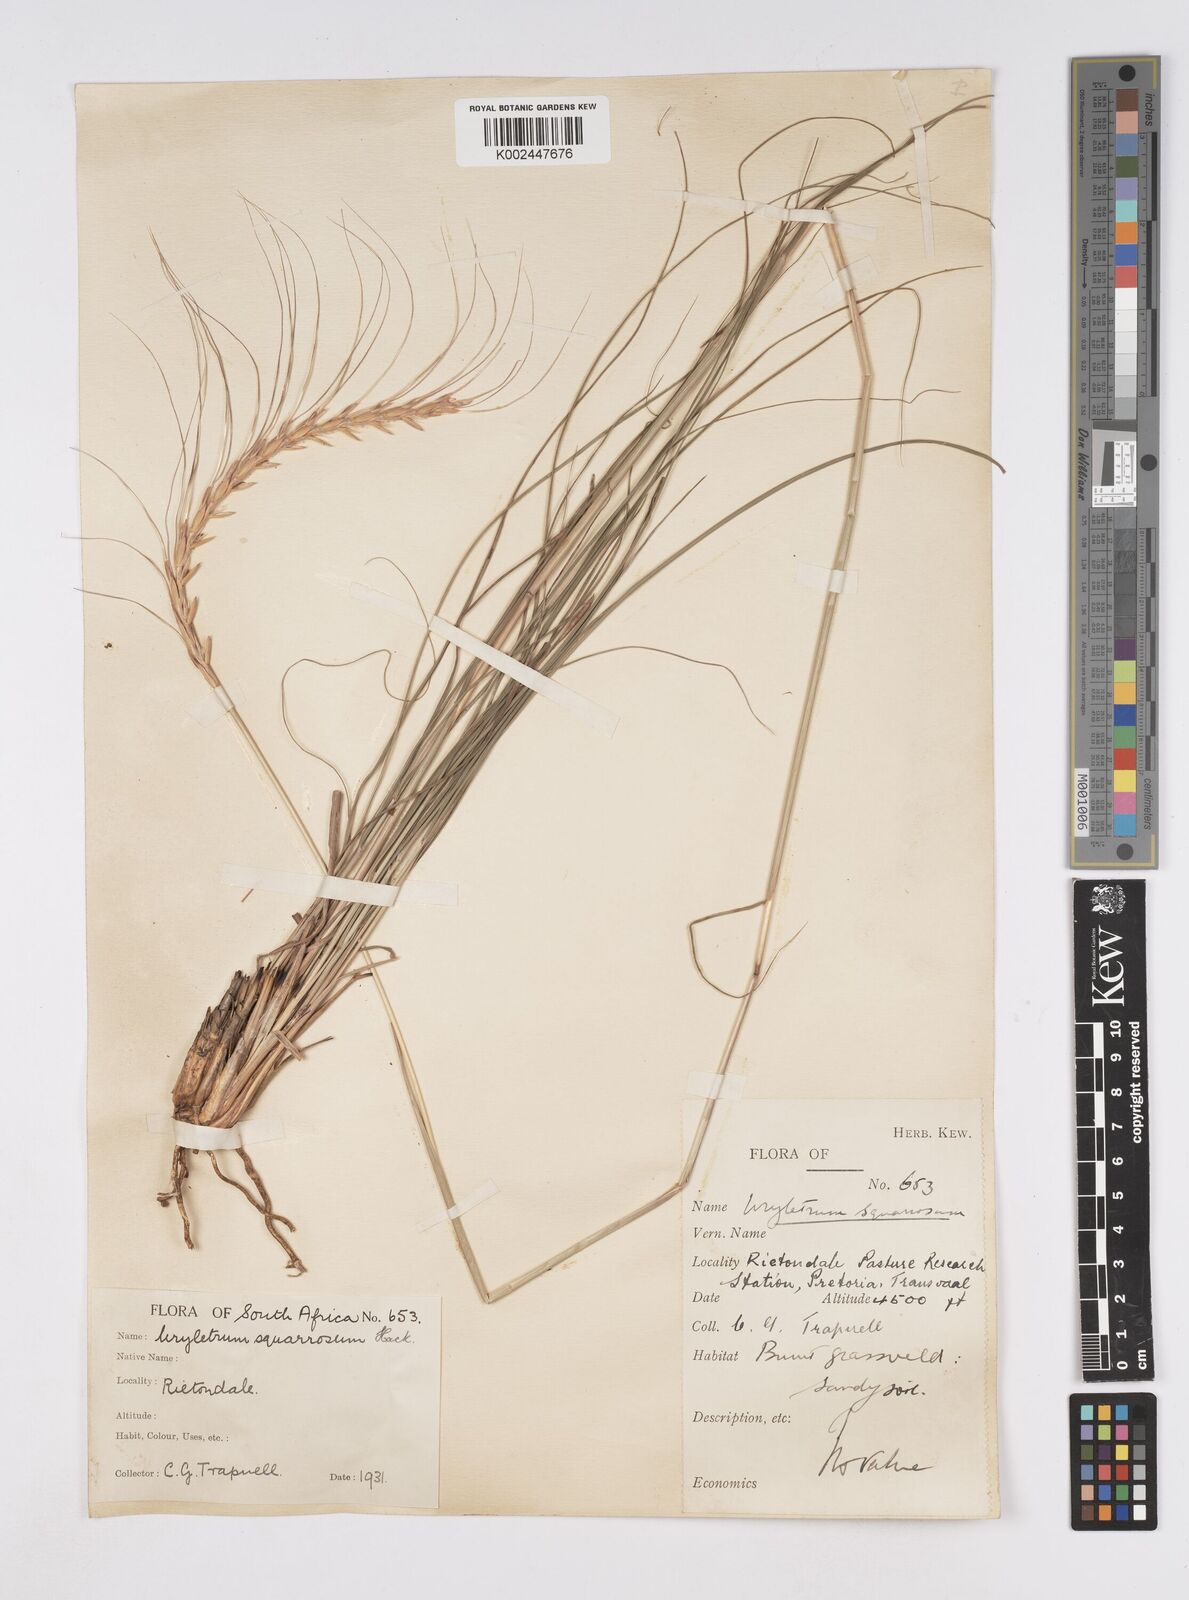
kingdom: Plantae
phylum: Tracheophyta
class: Liliopsida
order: Poales
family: Poaceae
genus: Urelytrum
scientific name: Urelytrum agropyroides
